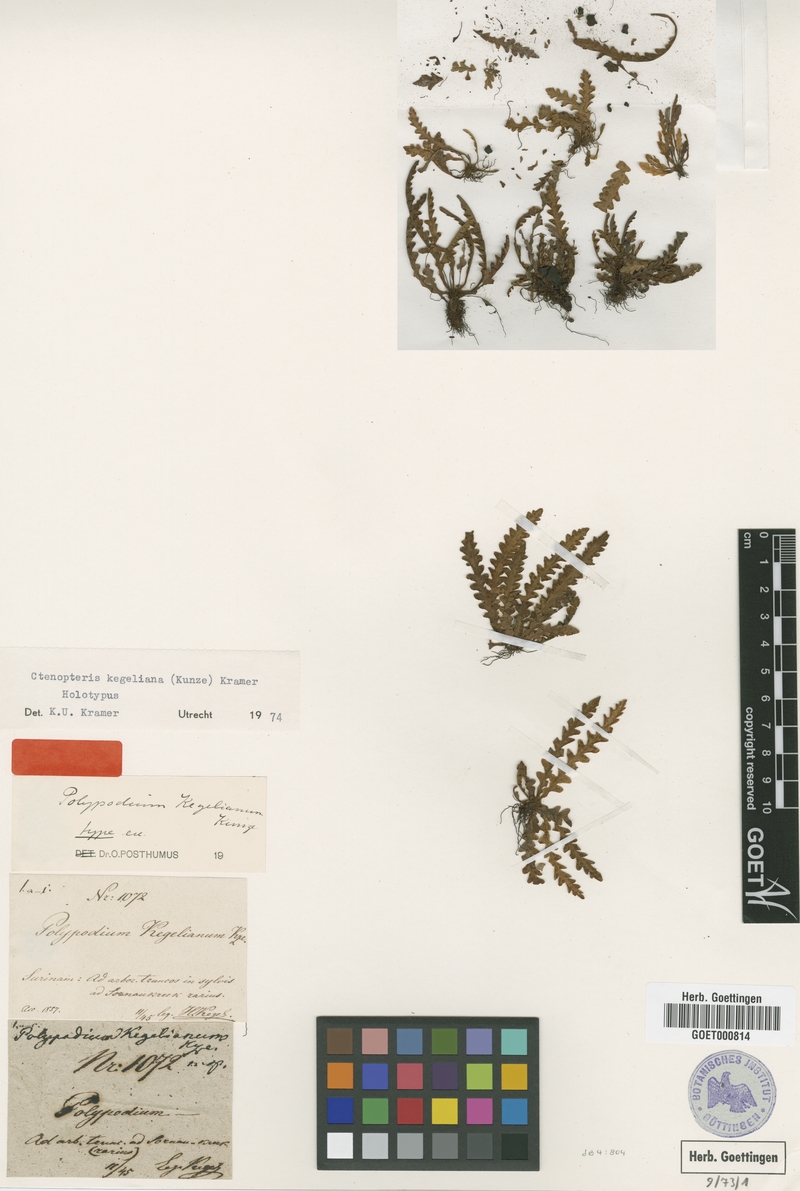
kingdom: Plantae
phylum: Tracheophyta
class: Polypodiopsida
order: Polypodiales
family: Polypodiaceae
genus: Ceradenia
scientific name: Ceradenia kegeliana
